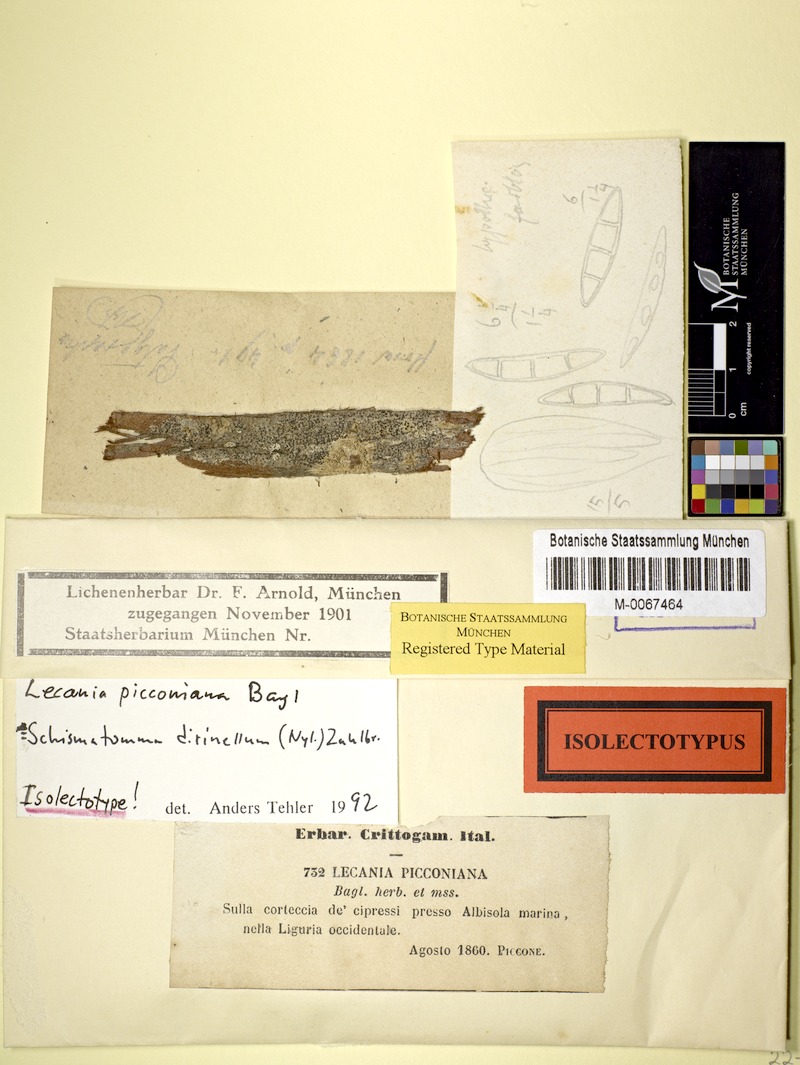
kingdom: Fungi
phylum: Ascomycota
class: Arthoniomycetes
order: Arthoniales
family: Roccellaceae
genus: Diromma
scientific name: Diromma dirinellum
